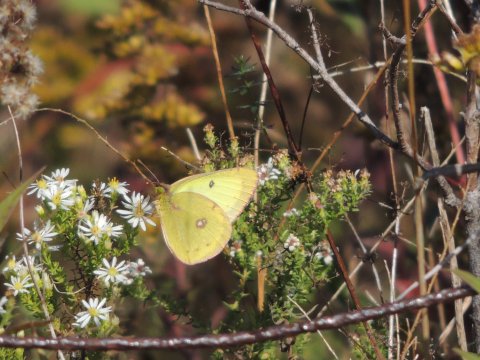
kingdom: Animalia
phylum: Arthropoda
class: Insecta
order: Lepidoptera
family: Pieridae
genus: Colias
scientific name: Colias philodice
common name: Clouded Sulphur
